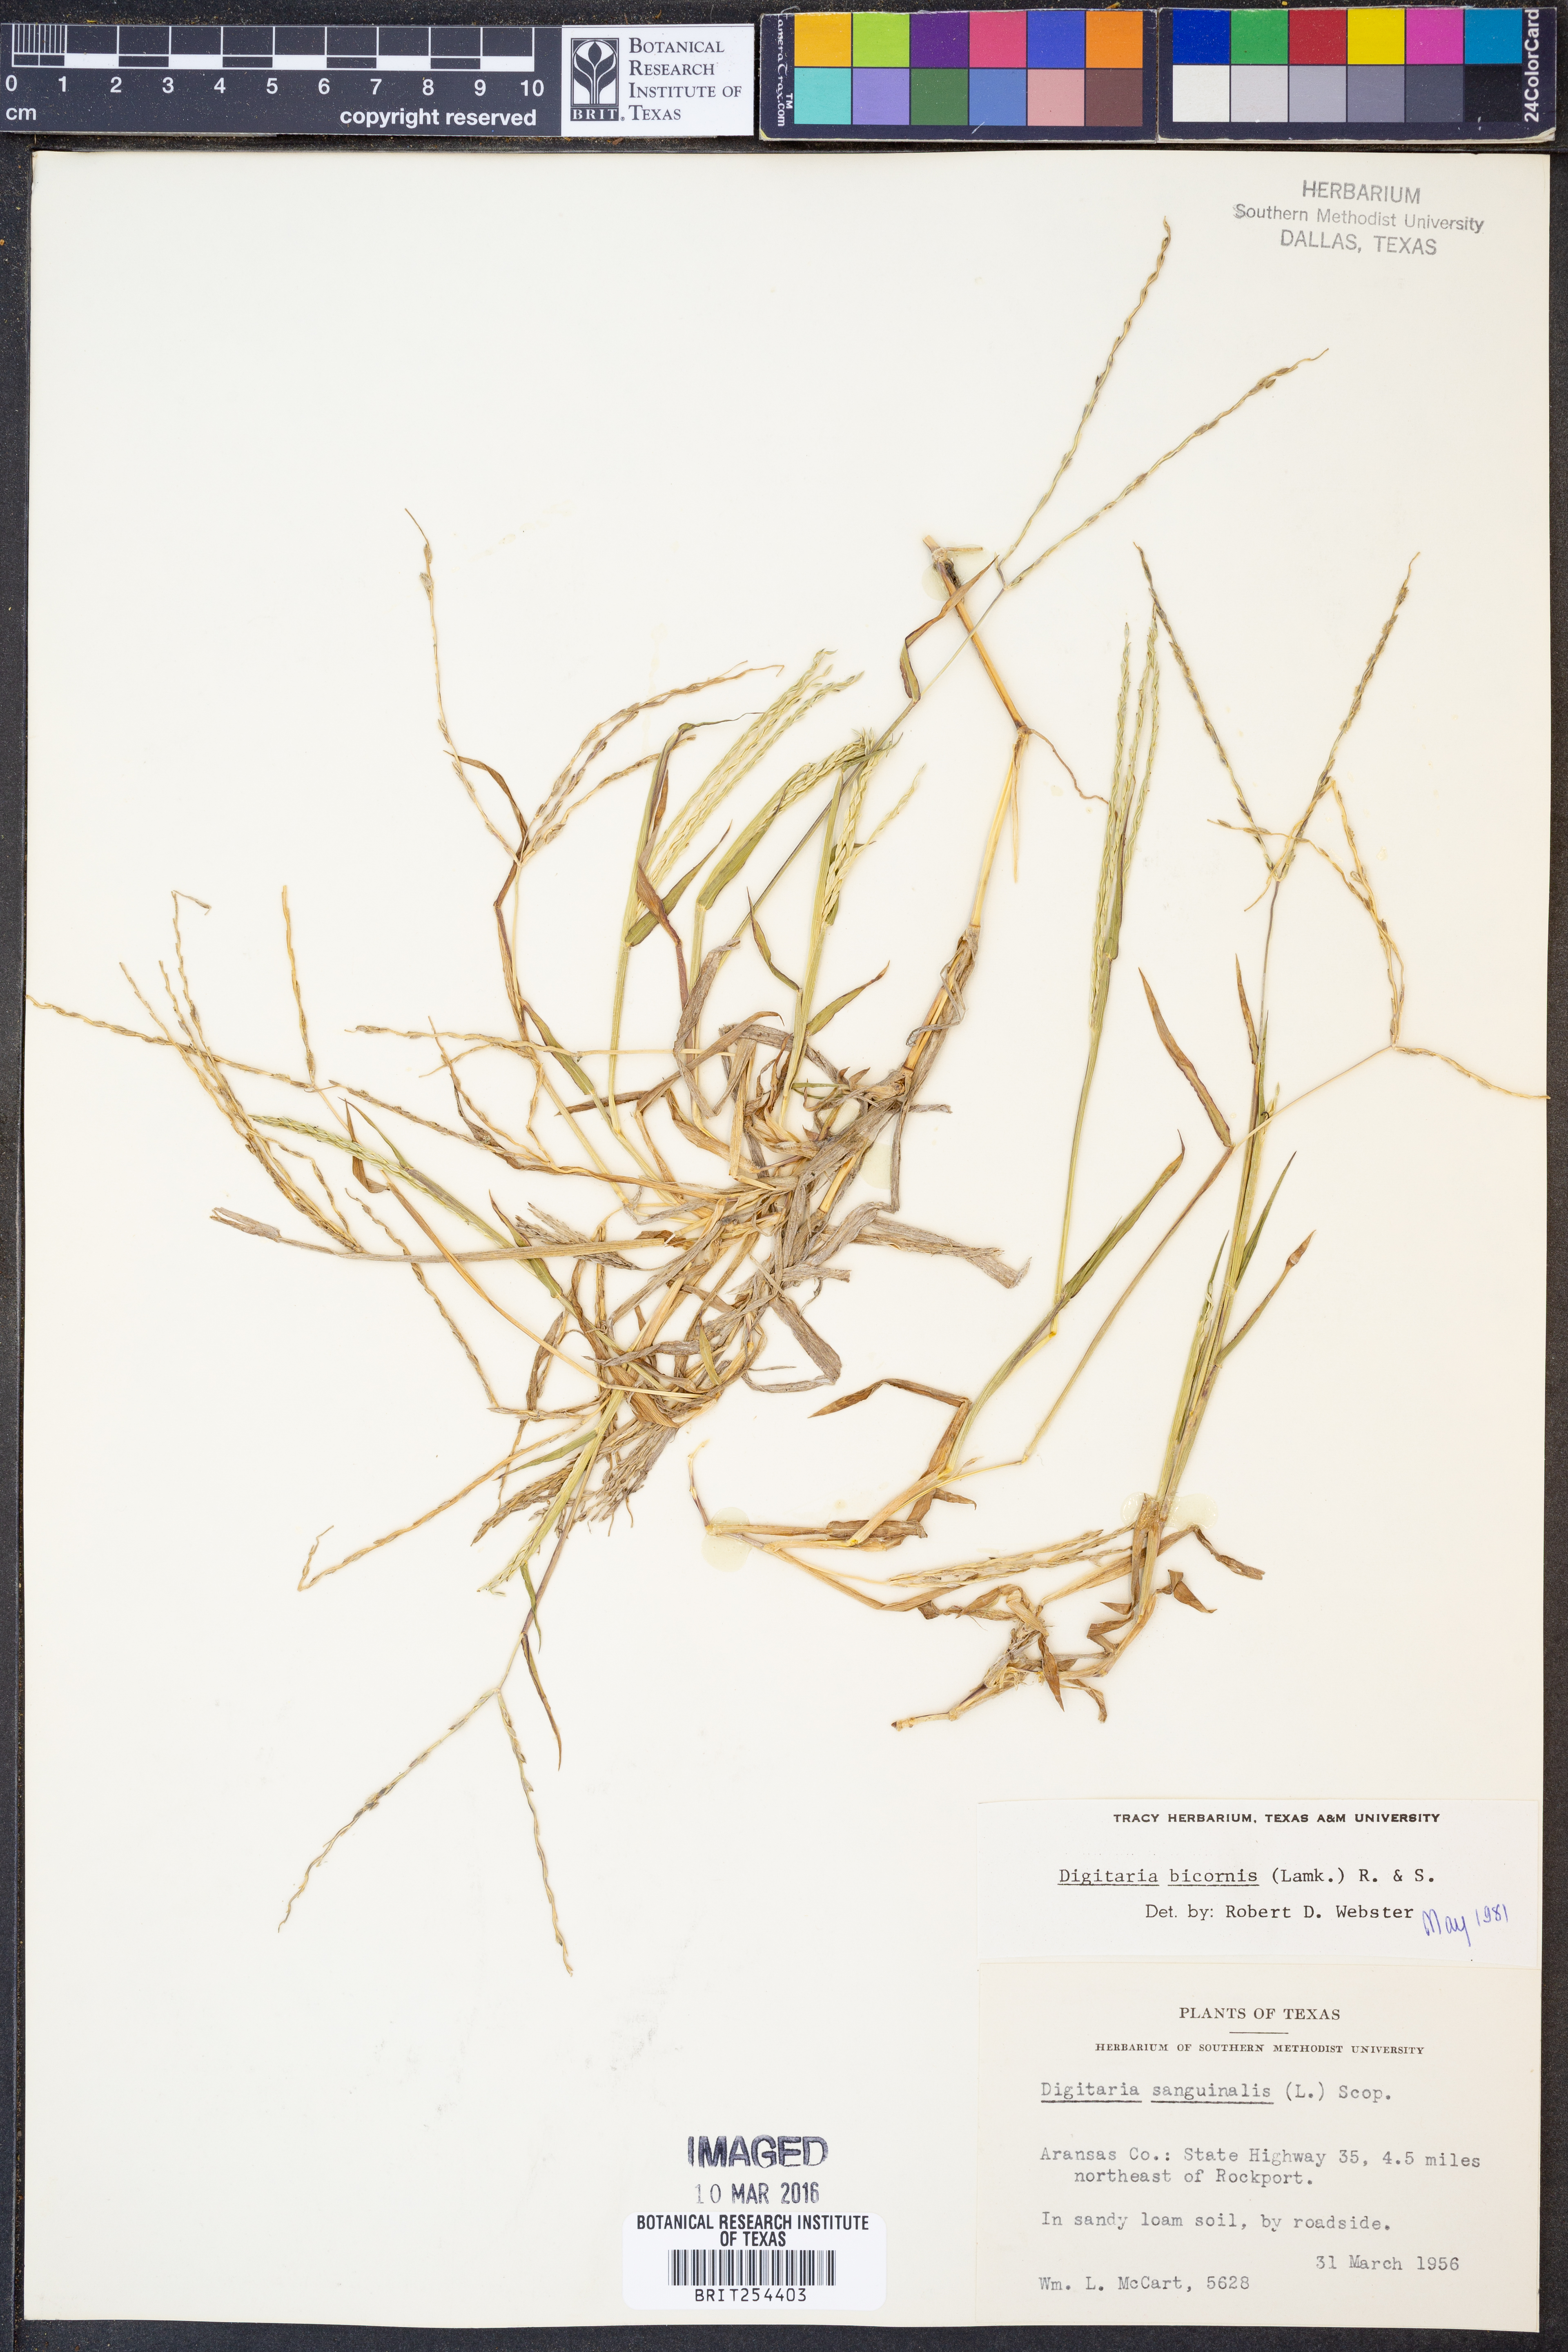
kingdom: Plantae
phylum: Tracheophyta
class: Liliopsida
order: Poales
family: Poaceae
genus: Digitaria
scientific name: Digitaria bicornis
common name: Asian crabgrass
